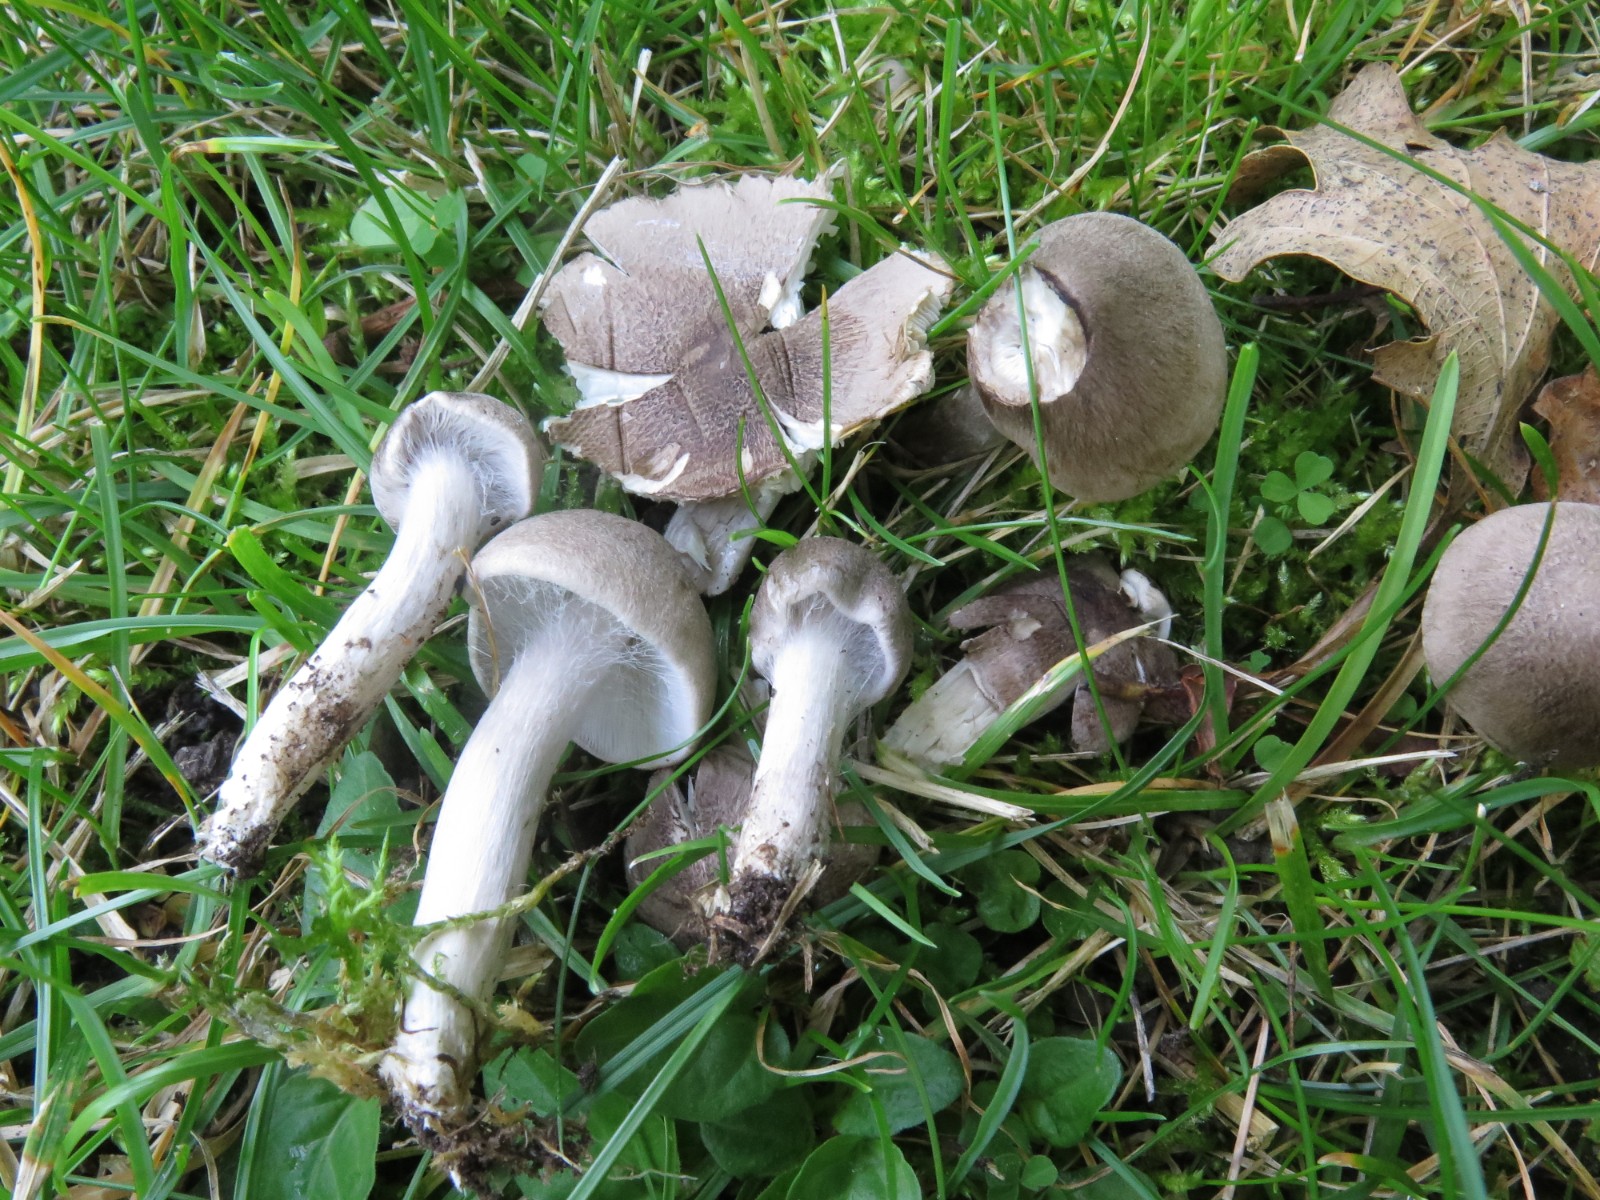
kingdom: Fungi
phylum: Basidiomycota
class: Agaricomycetes
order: Agaricales
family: Tricholomataceae
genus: Tricholoma
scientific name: Tricholoma argyraceum
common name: slør-ridderhat
